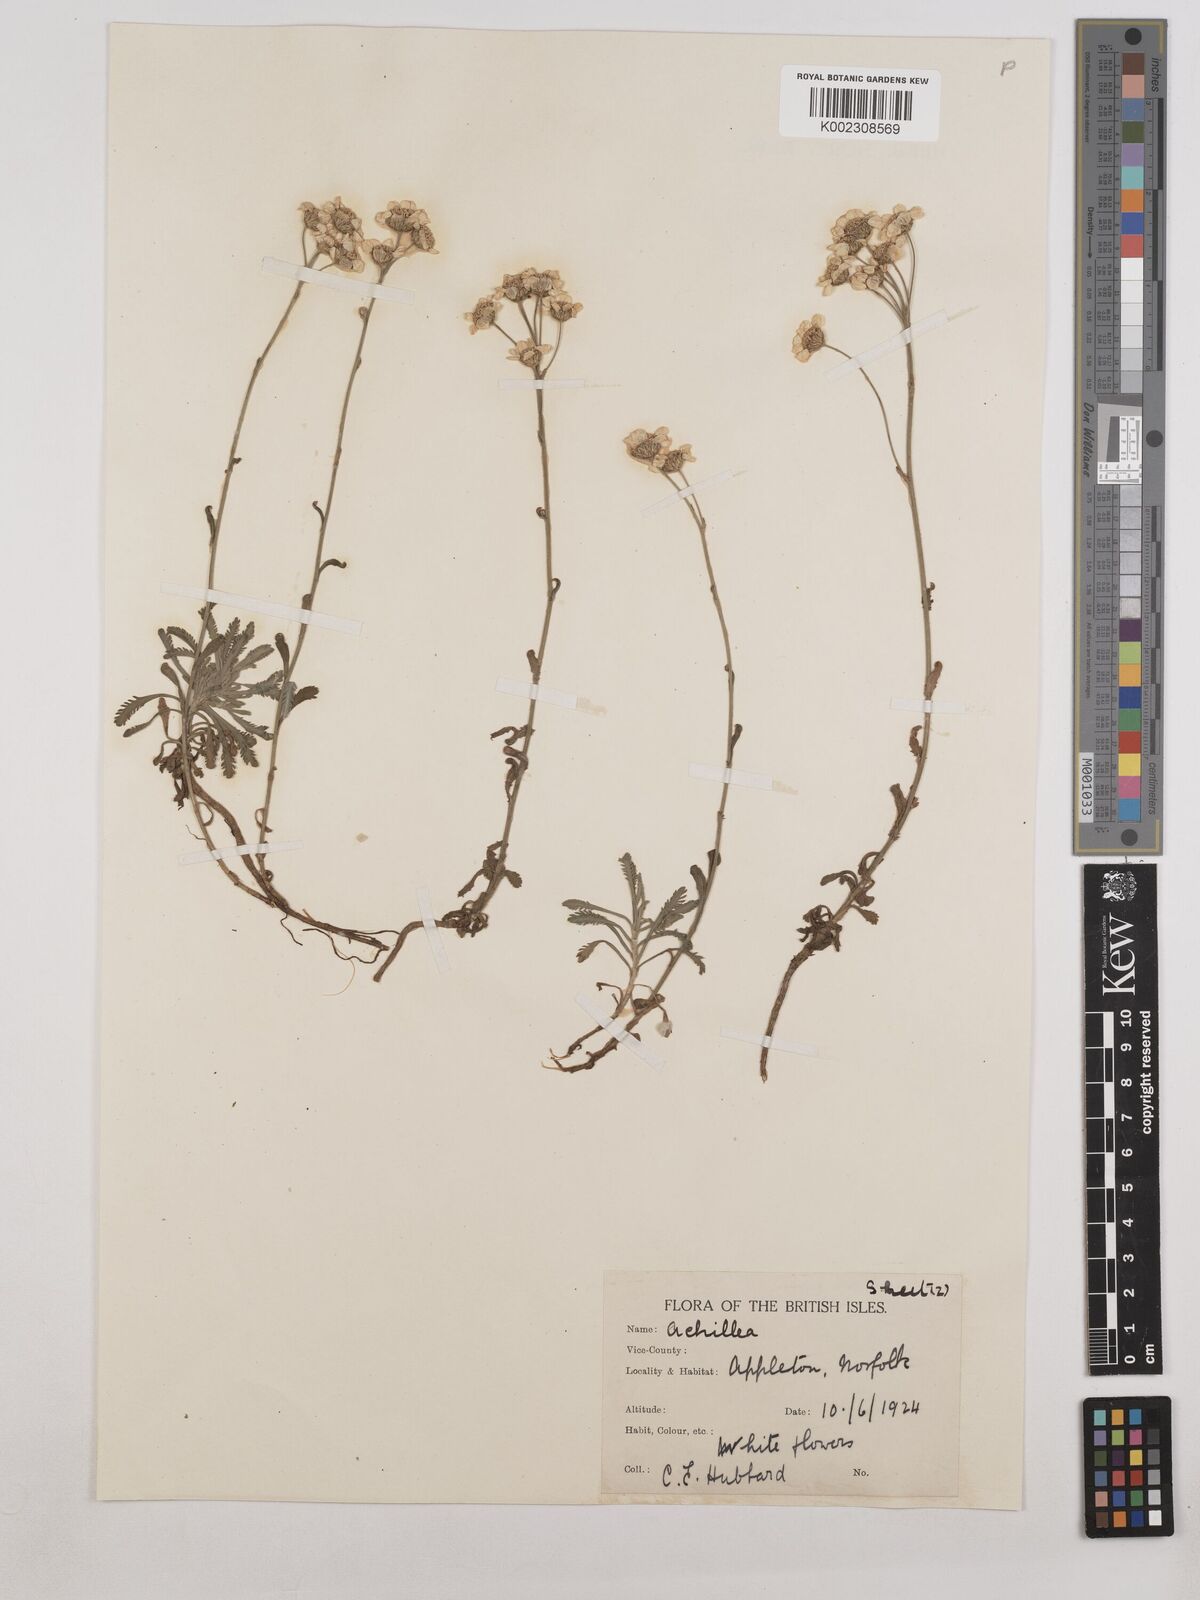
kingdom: Plantae
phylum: Tracheophyta
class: Magnoliopsida
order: Asterales
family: Asteraceae
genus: Achillea
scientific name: Achillea ageratifolia
